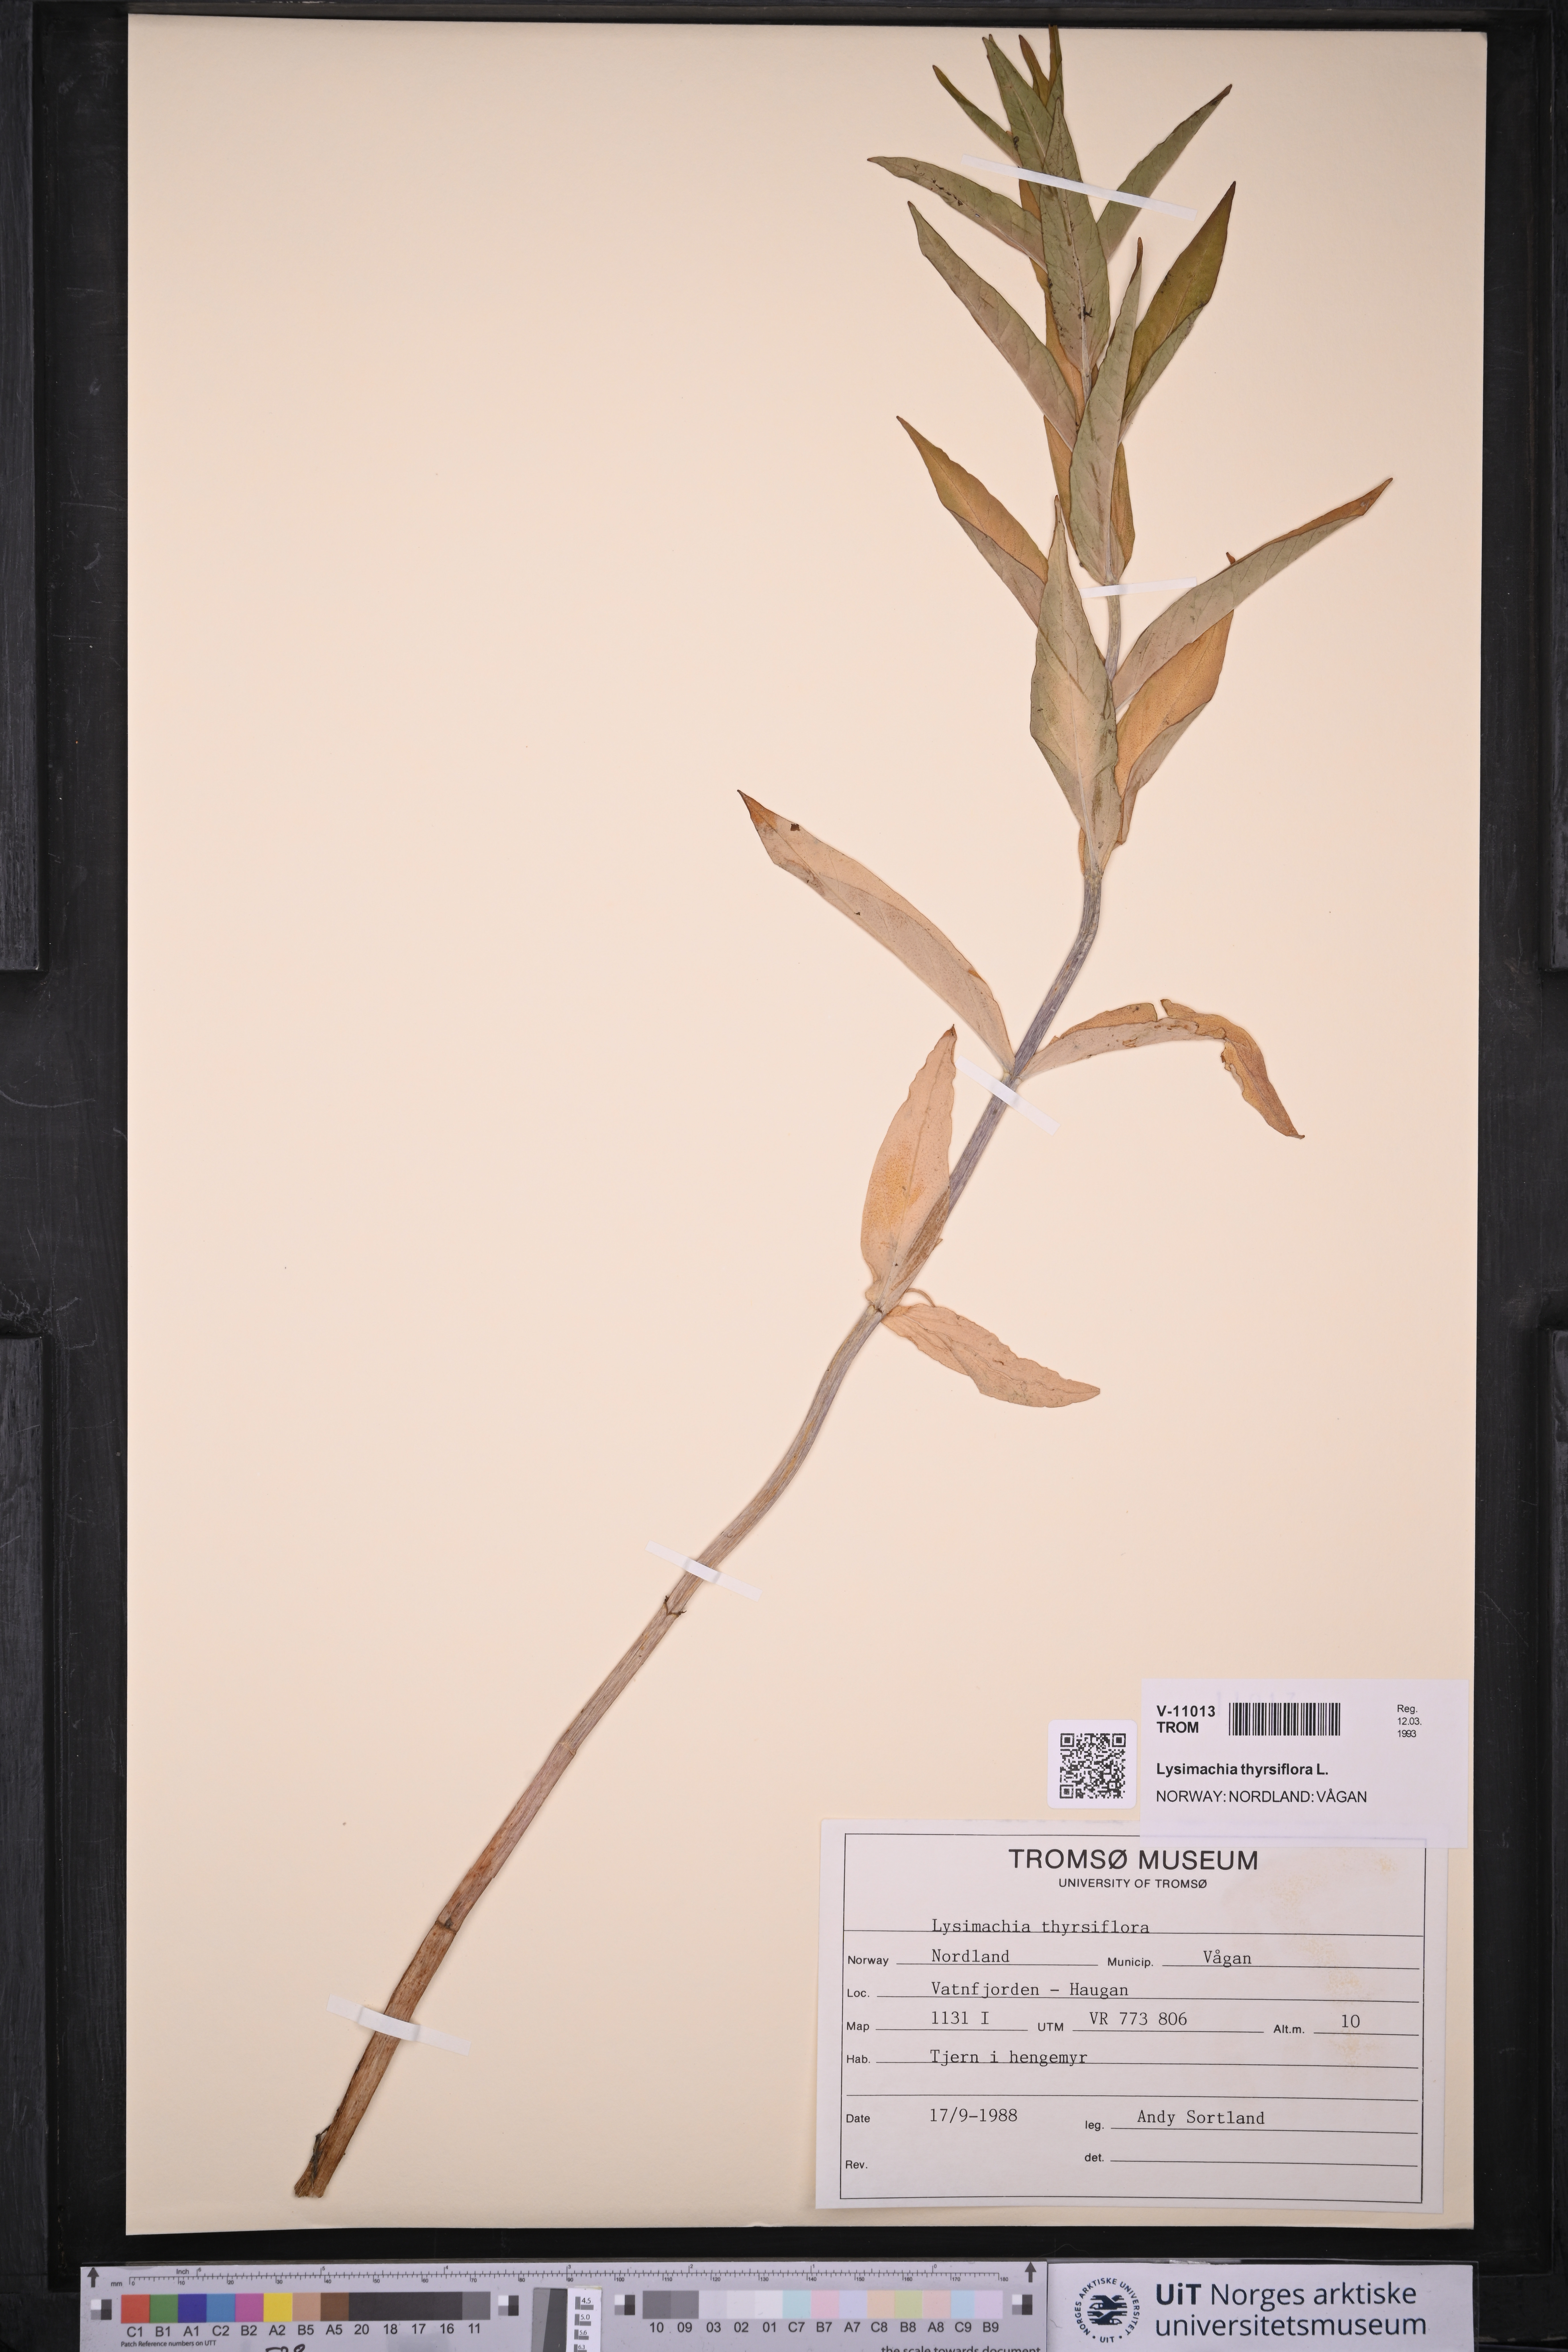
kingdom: Plantae
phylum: Tracheophyta
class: Magnoliopsida
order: Ericales
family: Primulaceae
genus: Lysimachia
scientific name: Lysimachia thyrsiflora
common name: Tufted loosestrife
